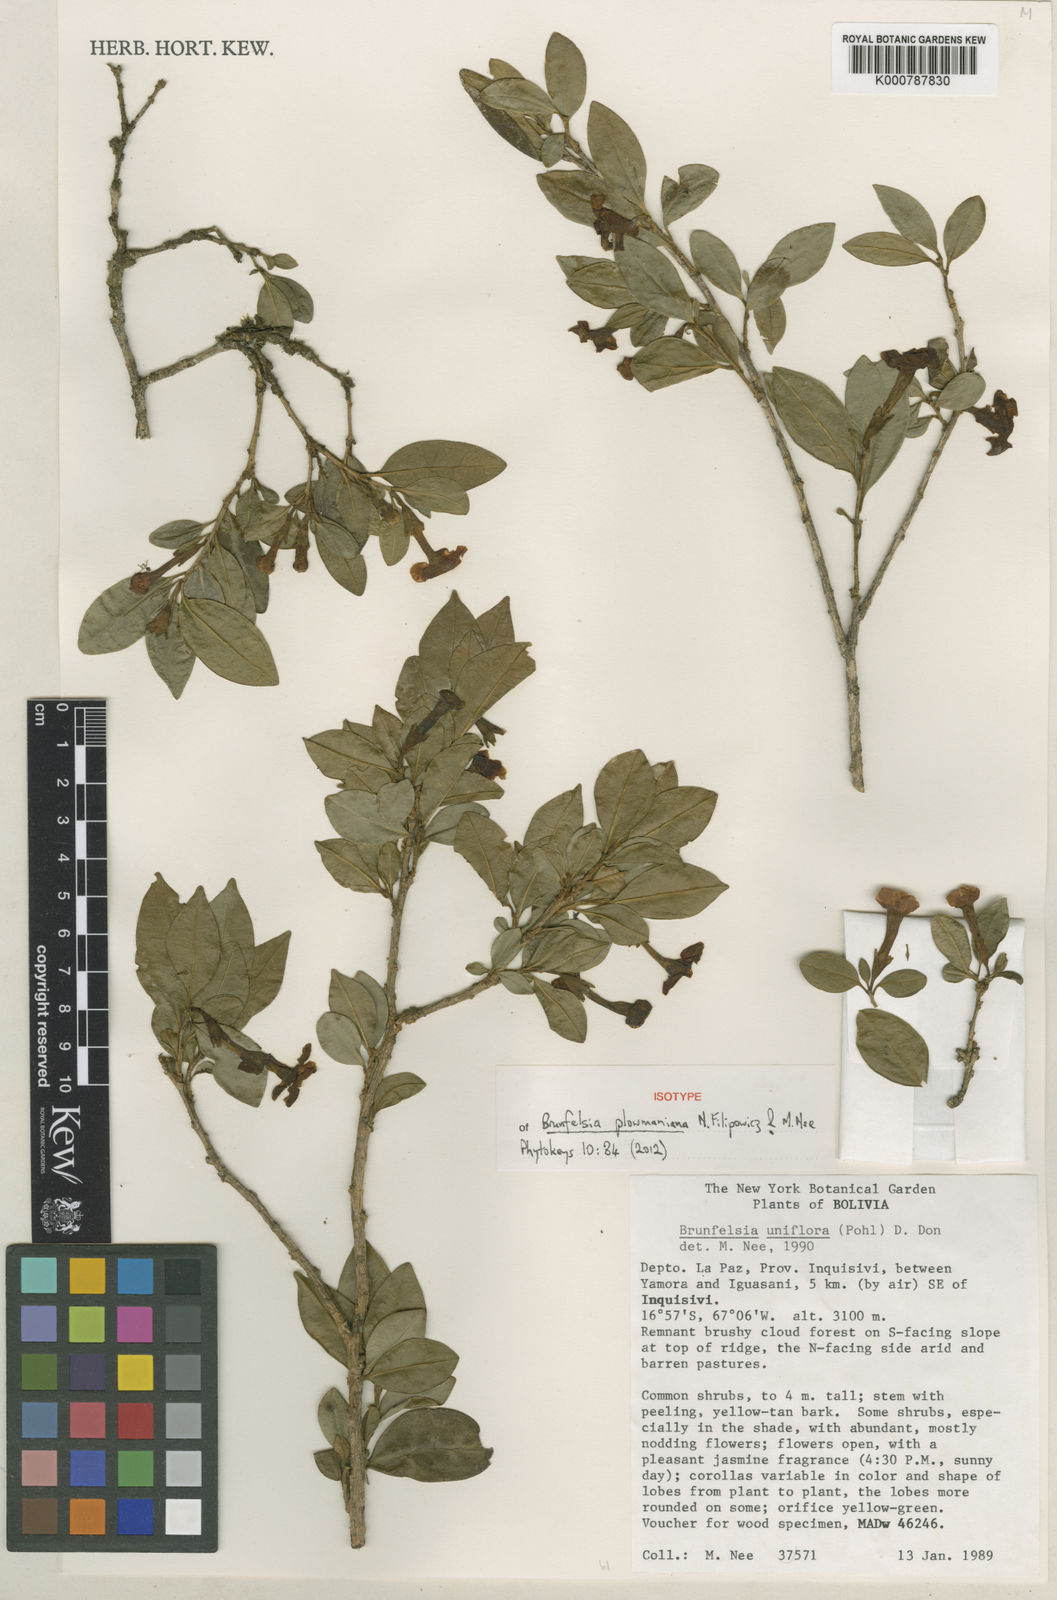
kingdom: Plantae
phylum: Tracheophyta
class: Magnoliopsida
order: Solanales
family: Solanaceae
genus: Brunfelsia
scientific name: Brunfelsia plowmaniana
